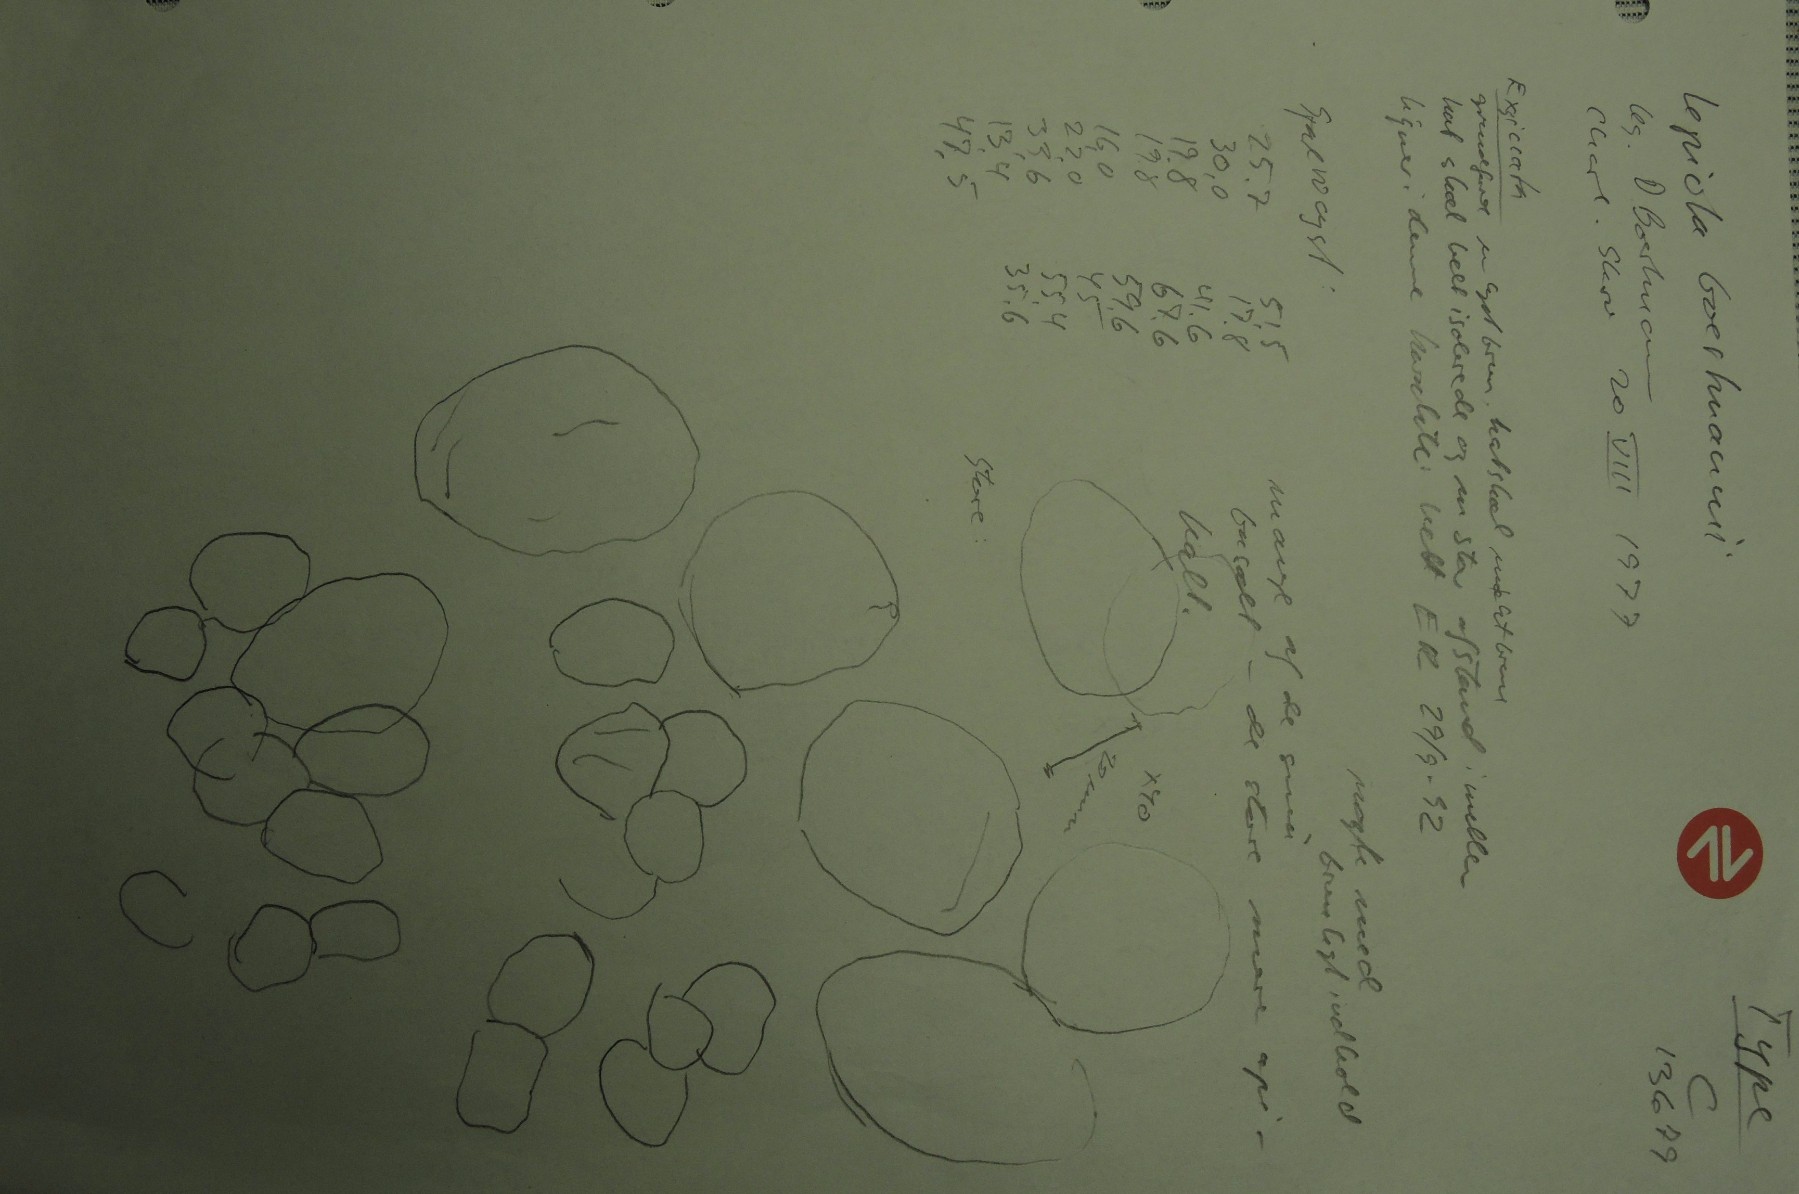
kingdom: Fungi
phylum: Basidiomycota
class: Agaricomycetes
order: Agaricales
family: Agaricaceae
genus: Echinoderma
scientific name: Echinoderma boertmannii
